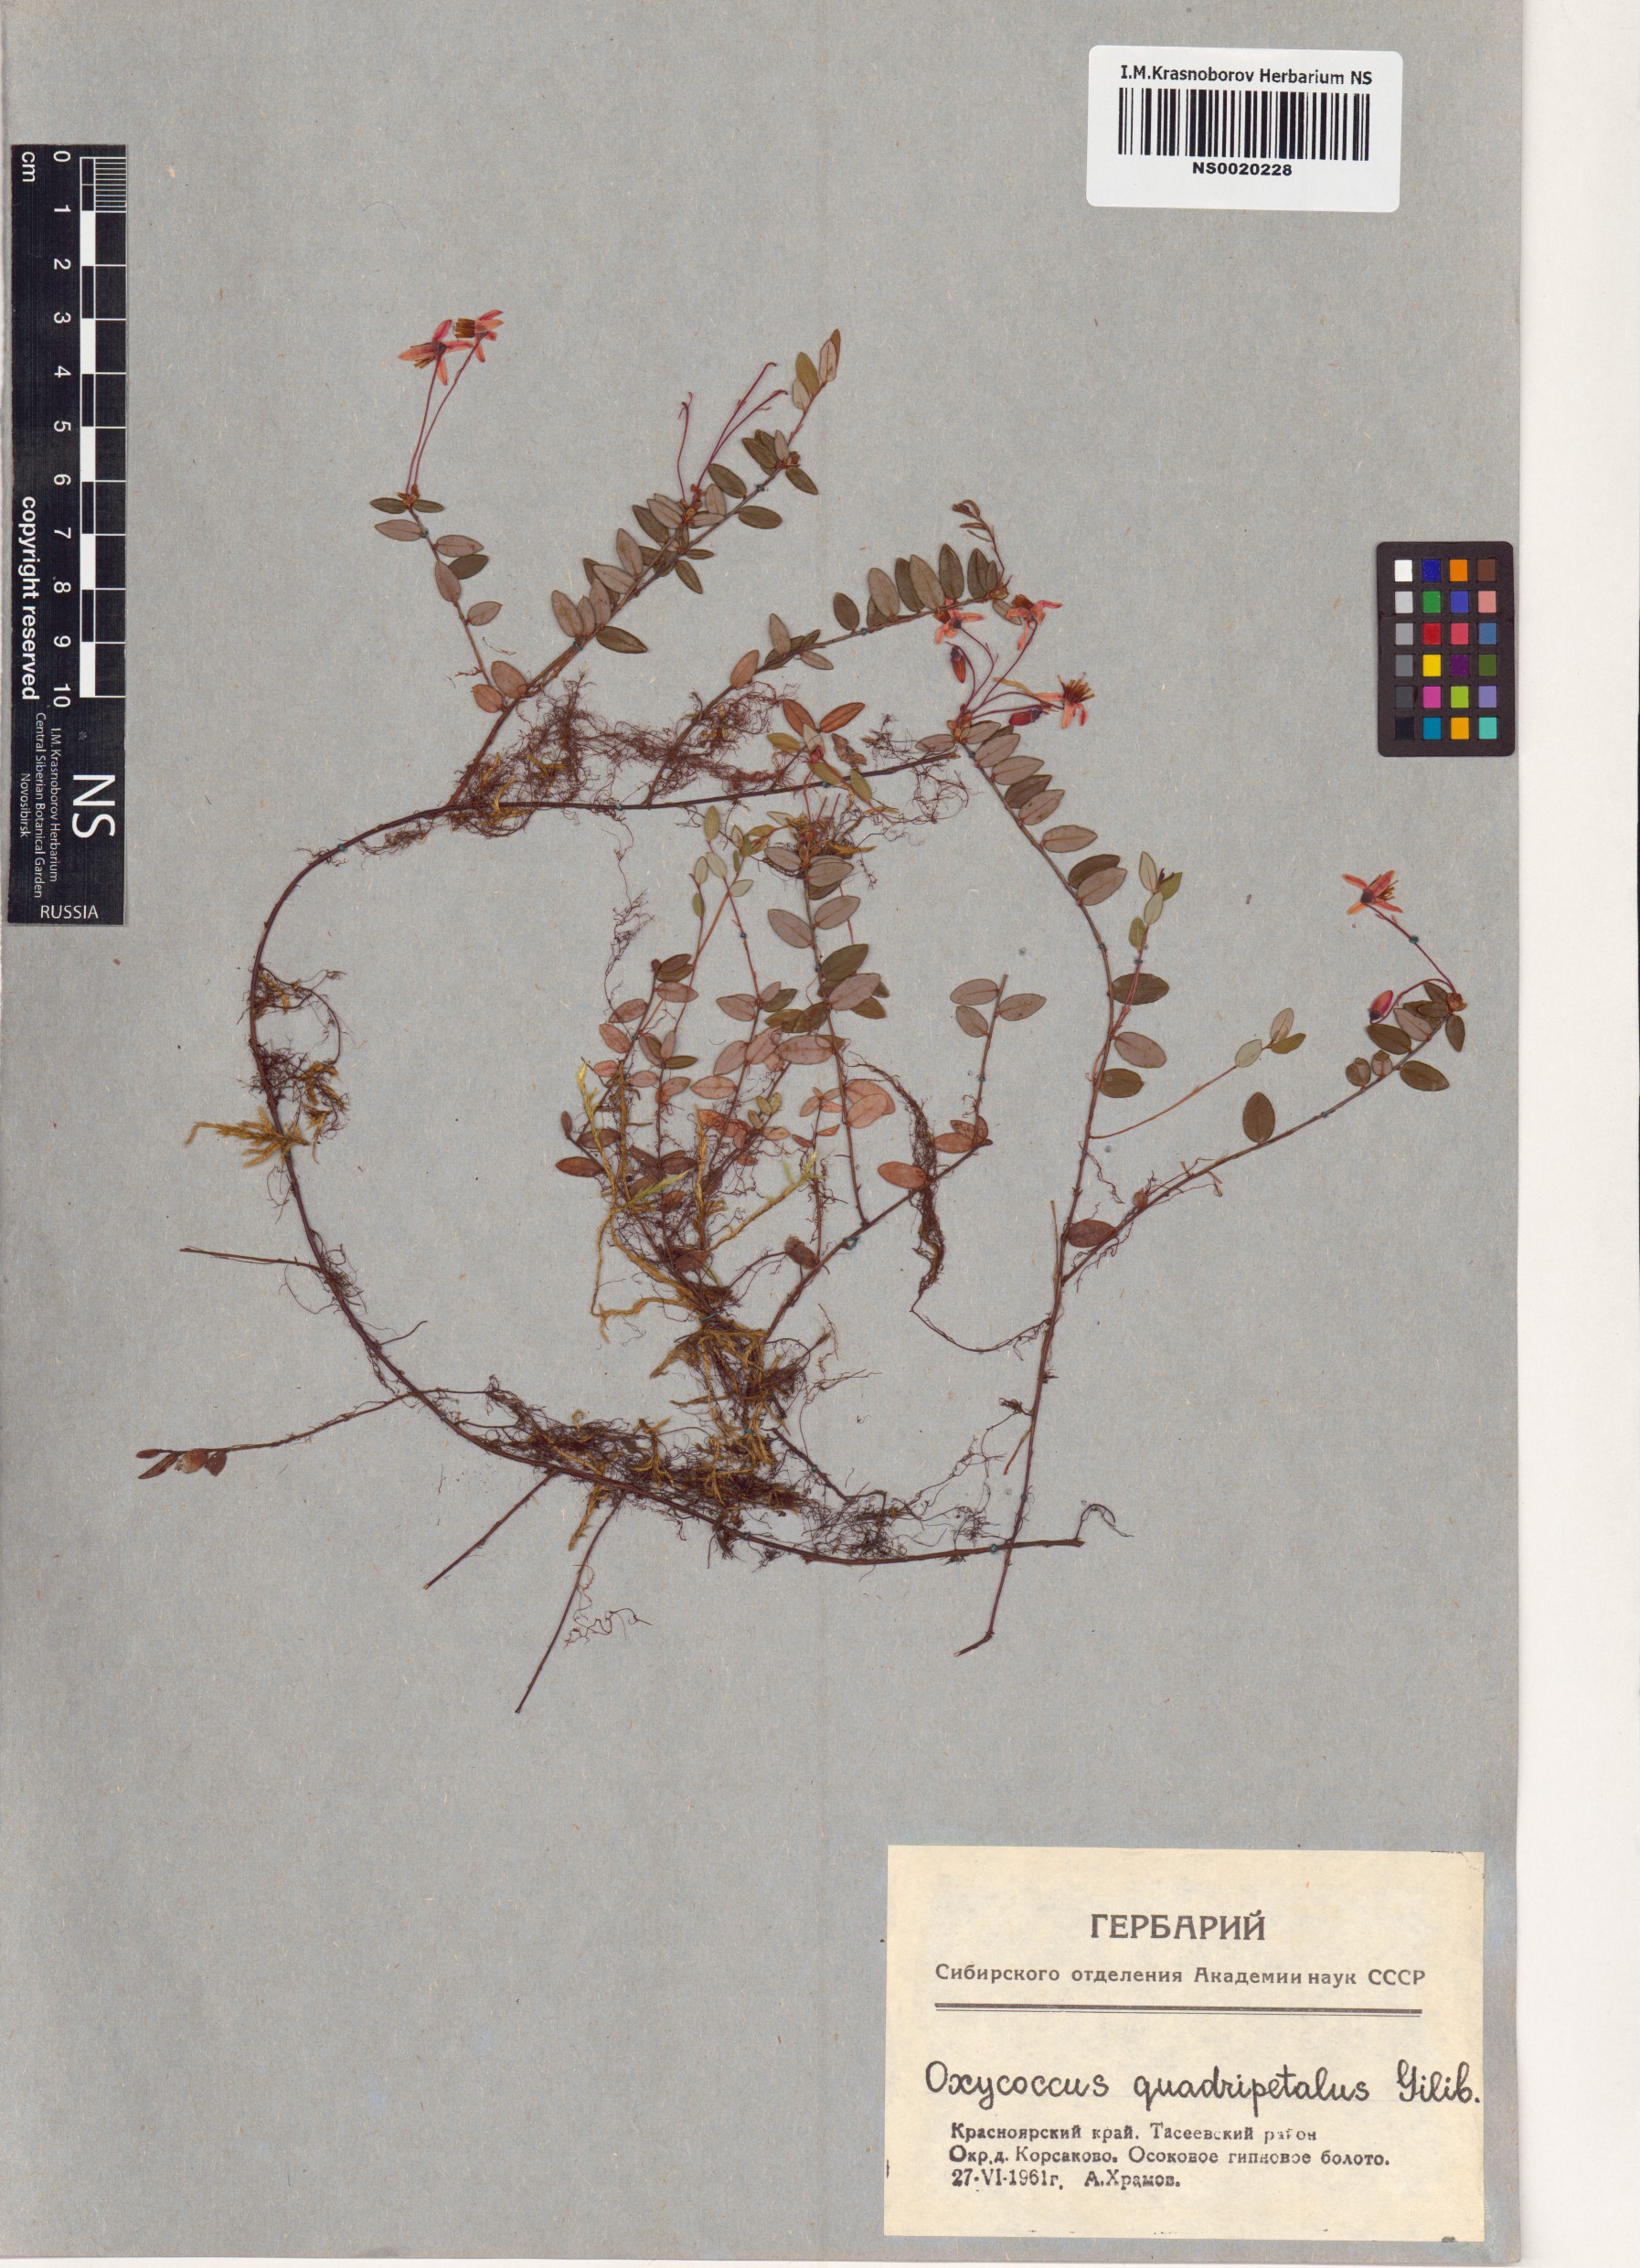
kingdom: Plantae
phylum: Tracheophyta
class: Magnoliopsida
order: Ericales
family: Ericaceae
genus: Vaccinium
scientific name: Vaccinium oxycoccos
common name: Cranberry
